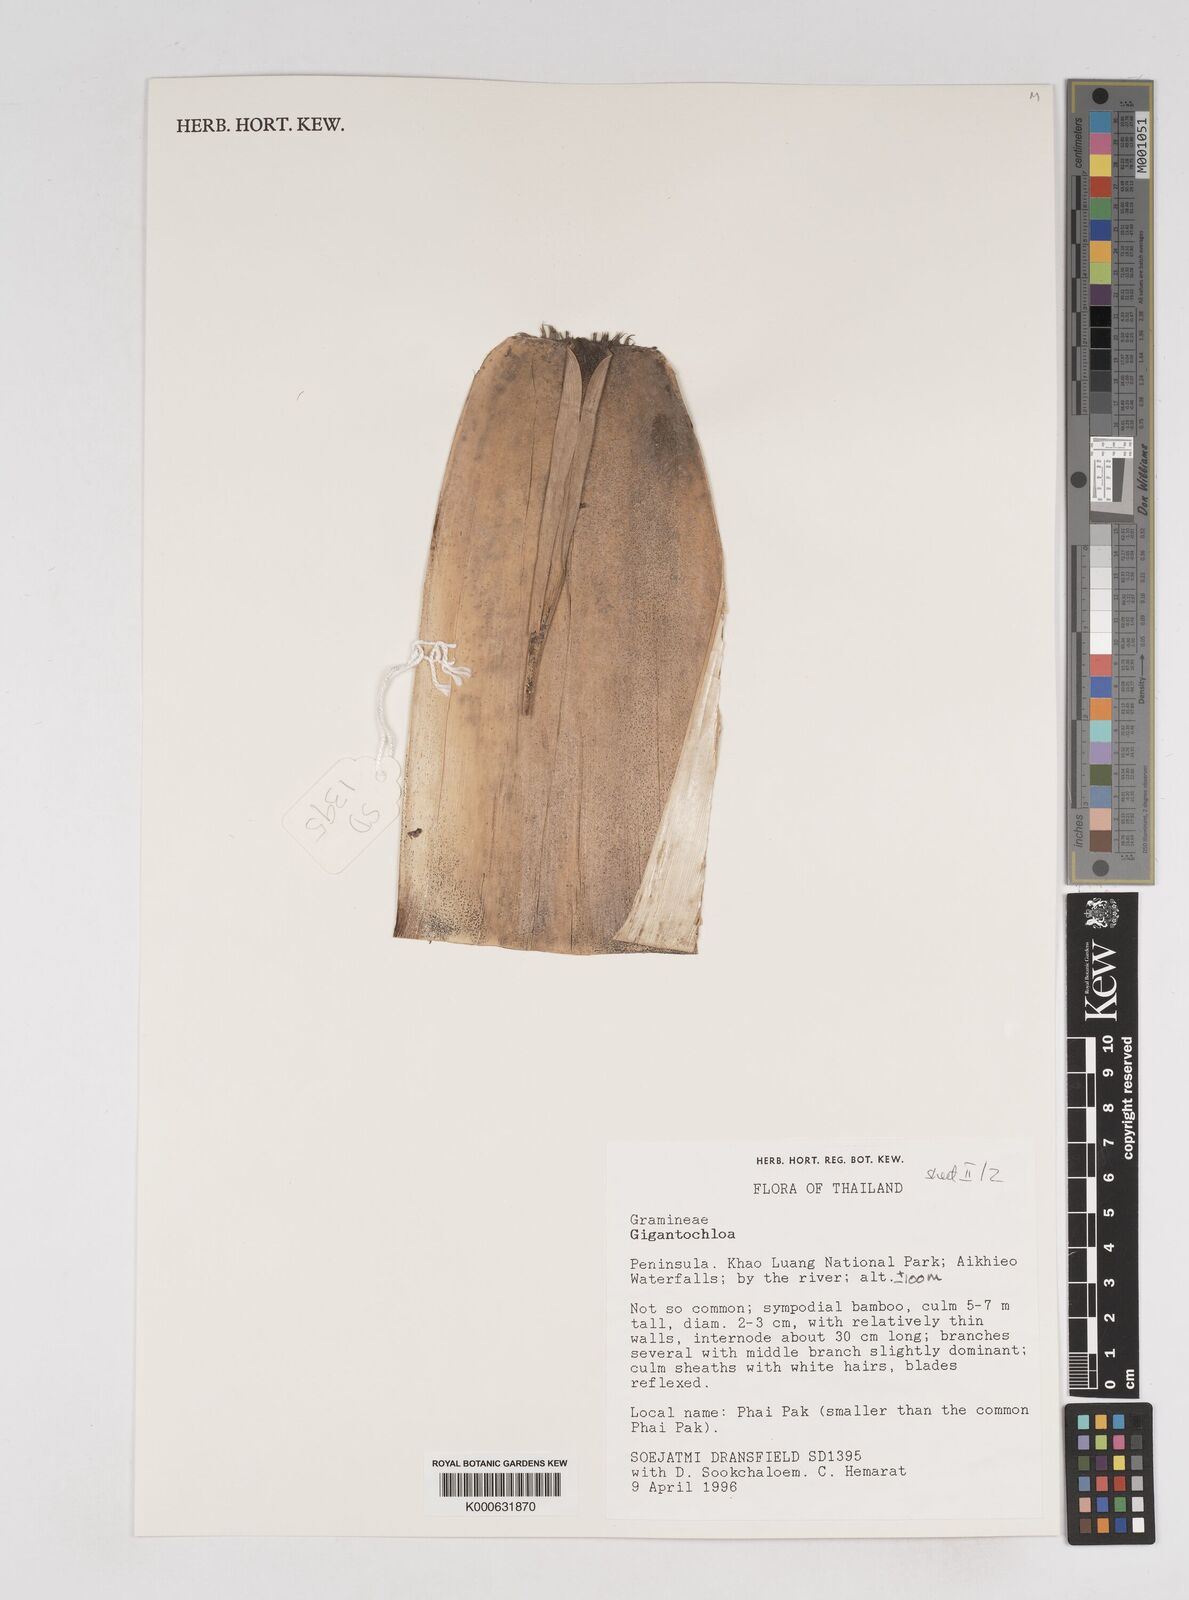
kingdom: Plantae
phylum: Tracheophyta
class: Liliopsida
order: Poales
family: Poaceae
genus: Gigantochloa
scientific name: Gigantochloa
